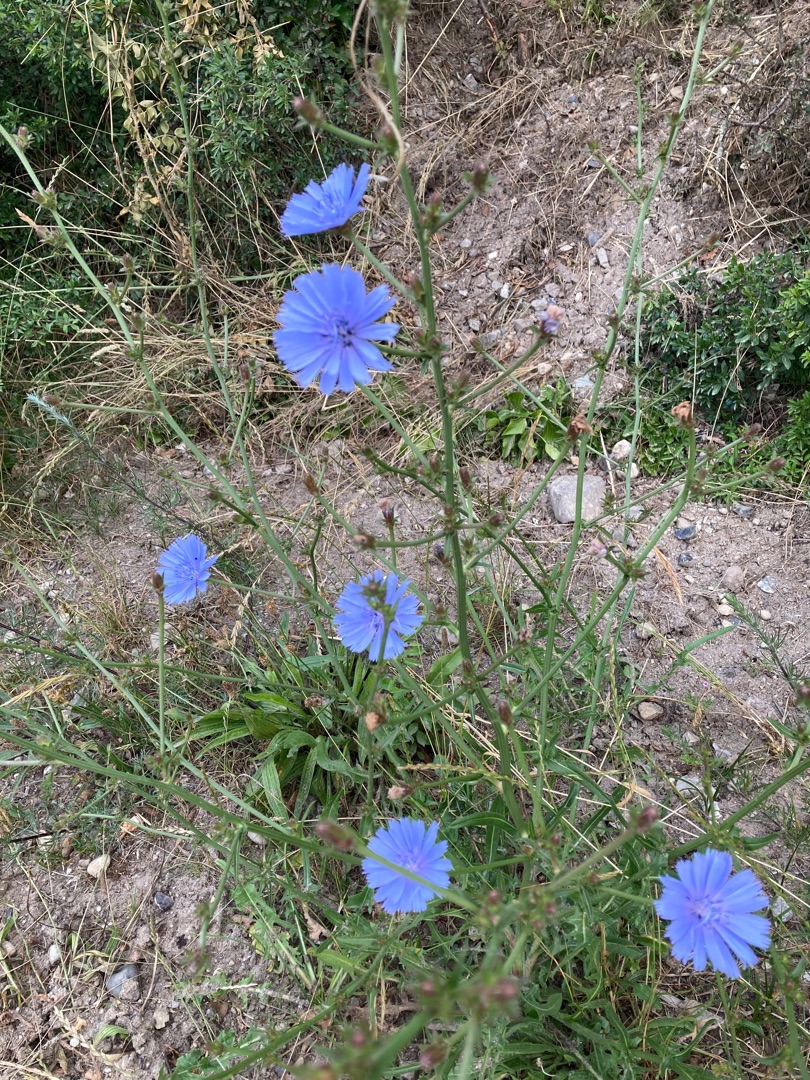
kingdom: Plantae
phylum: Tracheophyta
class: Magnoliopsida
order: Asterales
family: Asteraceae
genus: Cichorium
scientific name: Cichorium intybus
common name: Cikorie
